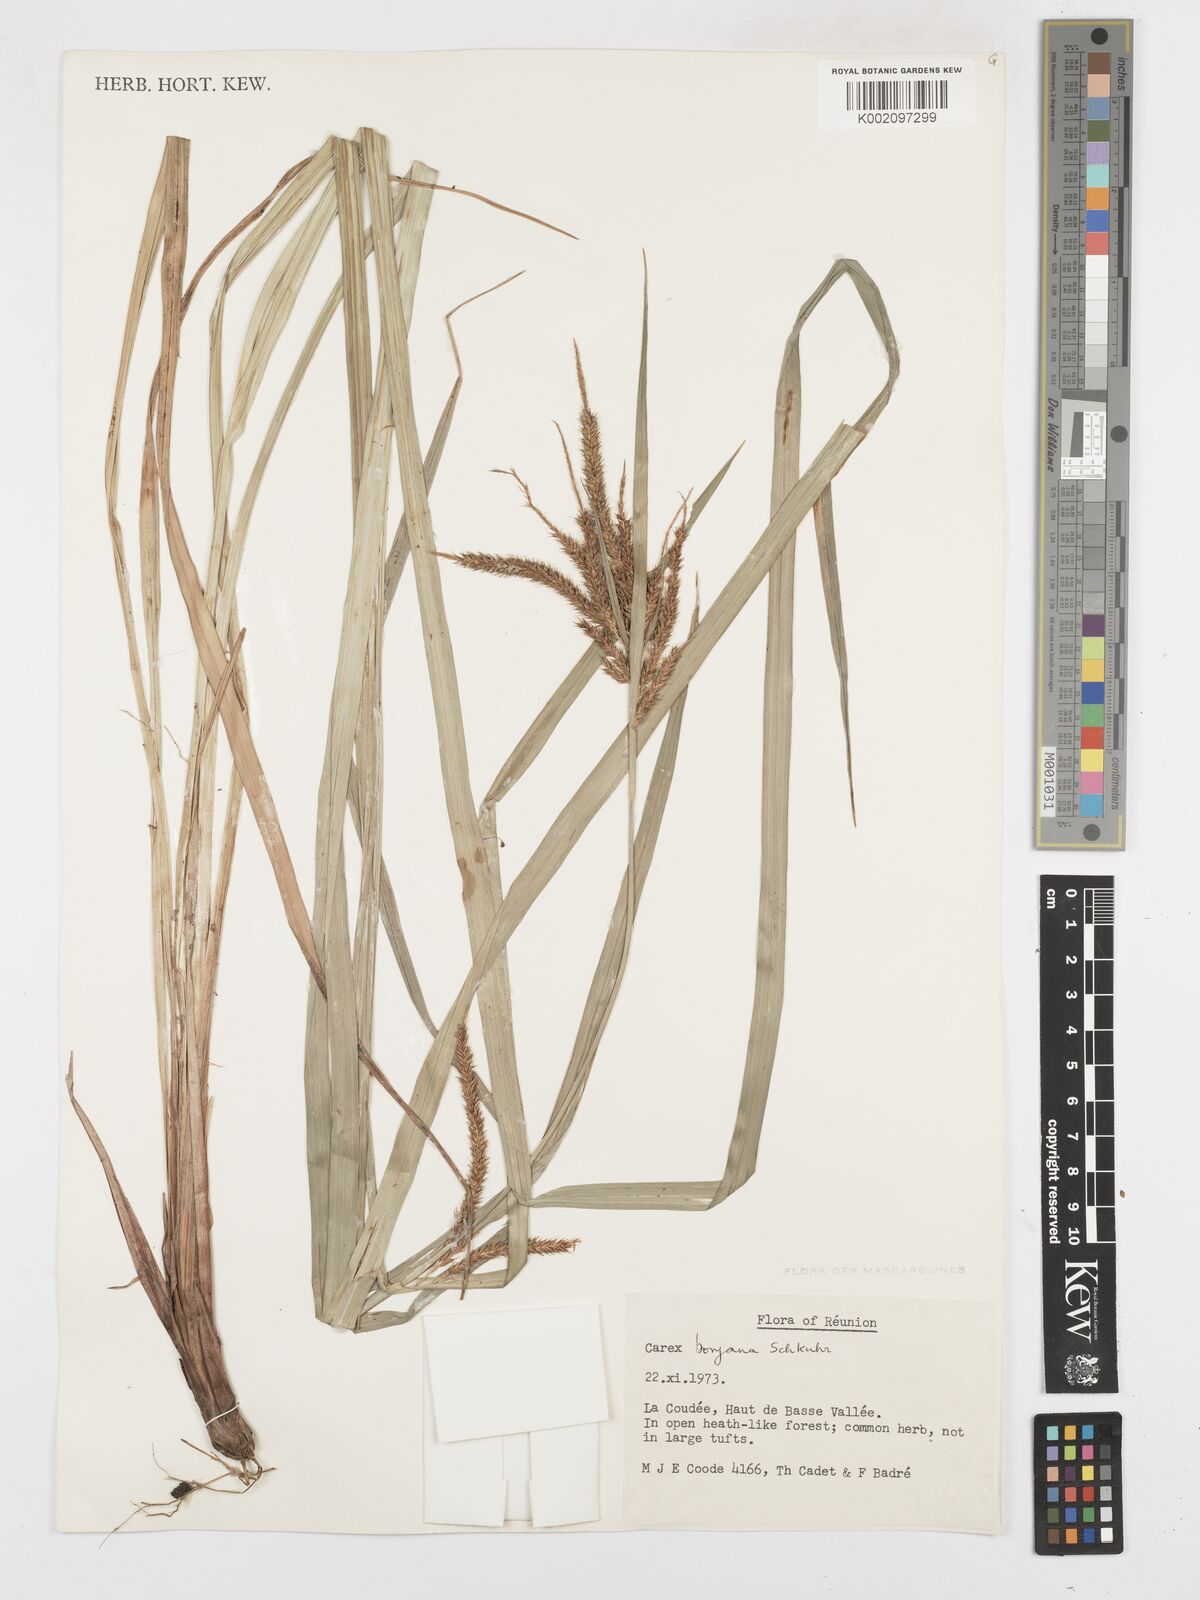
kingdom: Plantae
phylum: Tracheophyta
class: Liliopsida
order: Poales
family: Cyperaceae
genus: Carex
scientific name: Carex boryana
